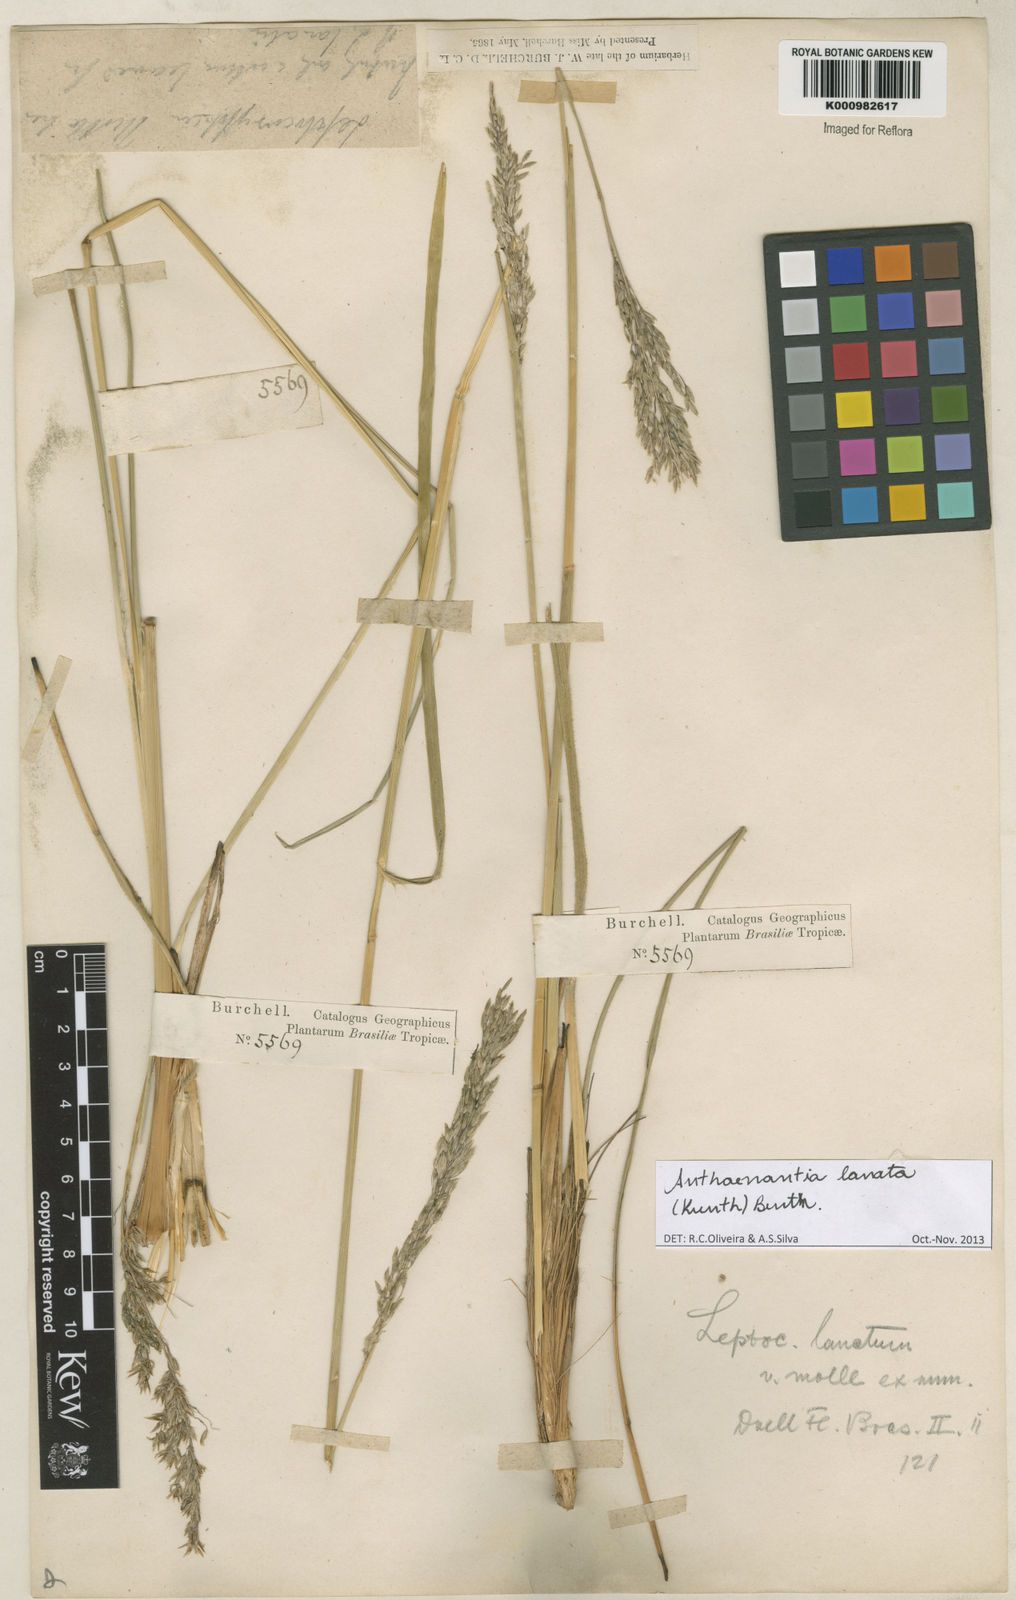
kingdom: Plantae
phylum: Tracheophyta
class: Liliopsida
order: Poales
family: Poaceae
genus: Anthenantia
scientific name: Anthenantia lanata
